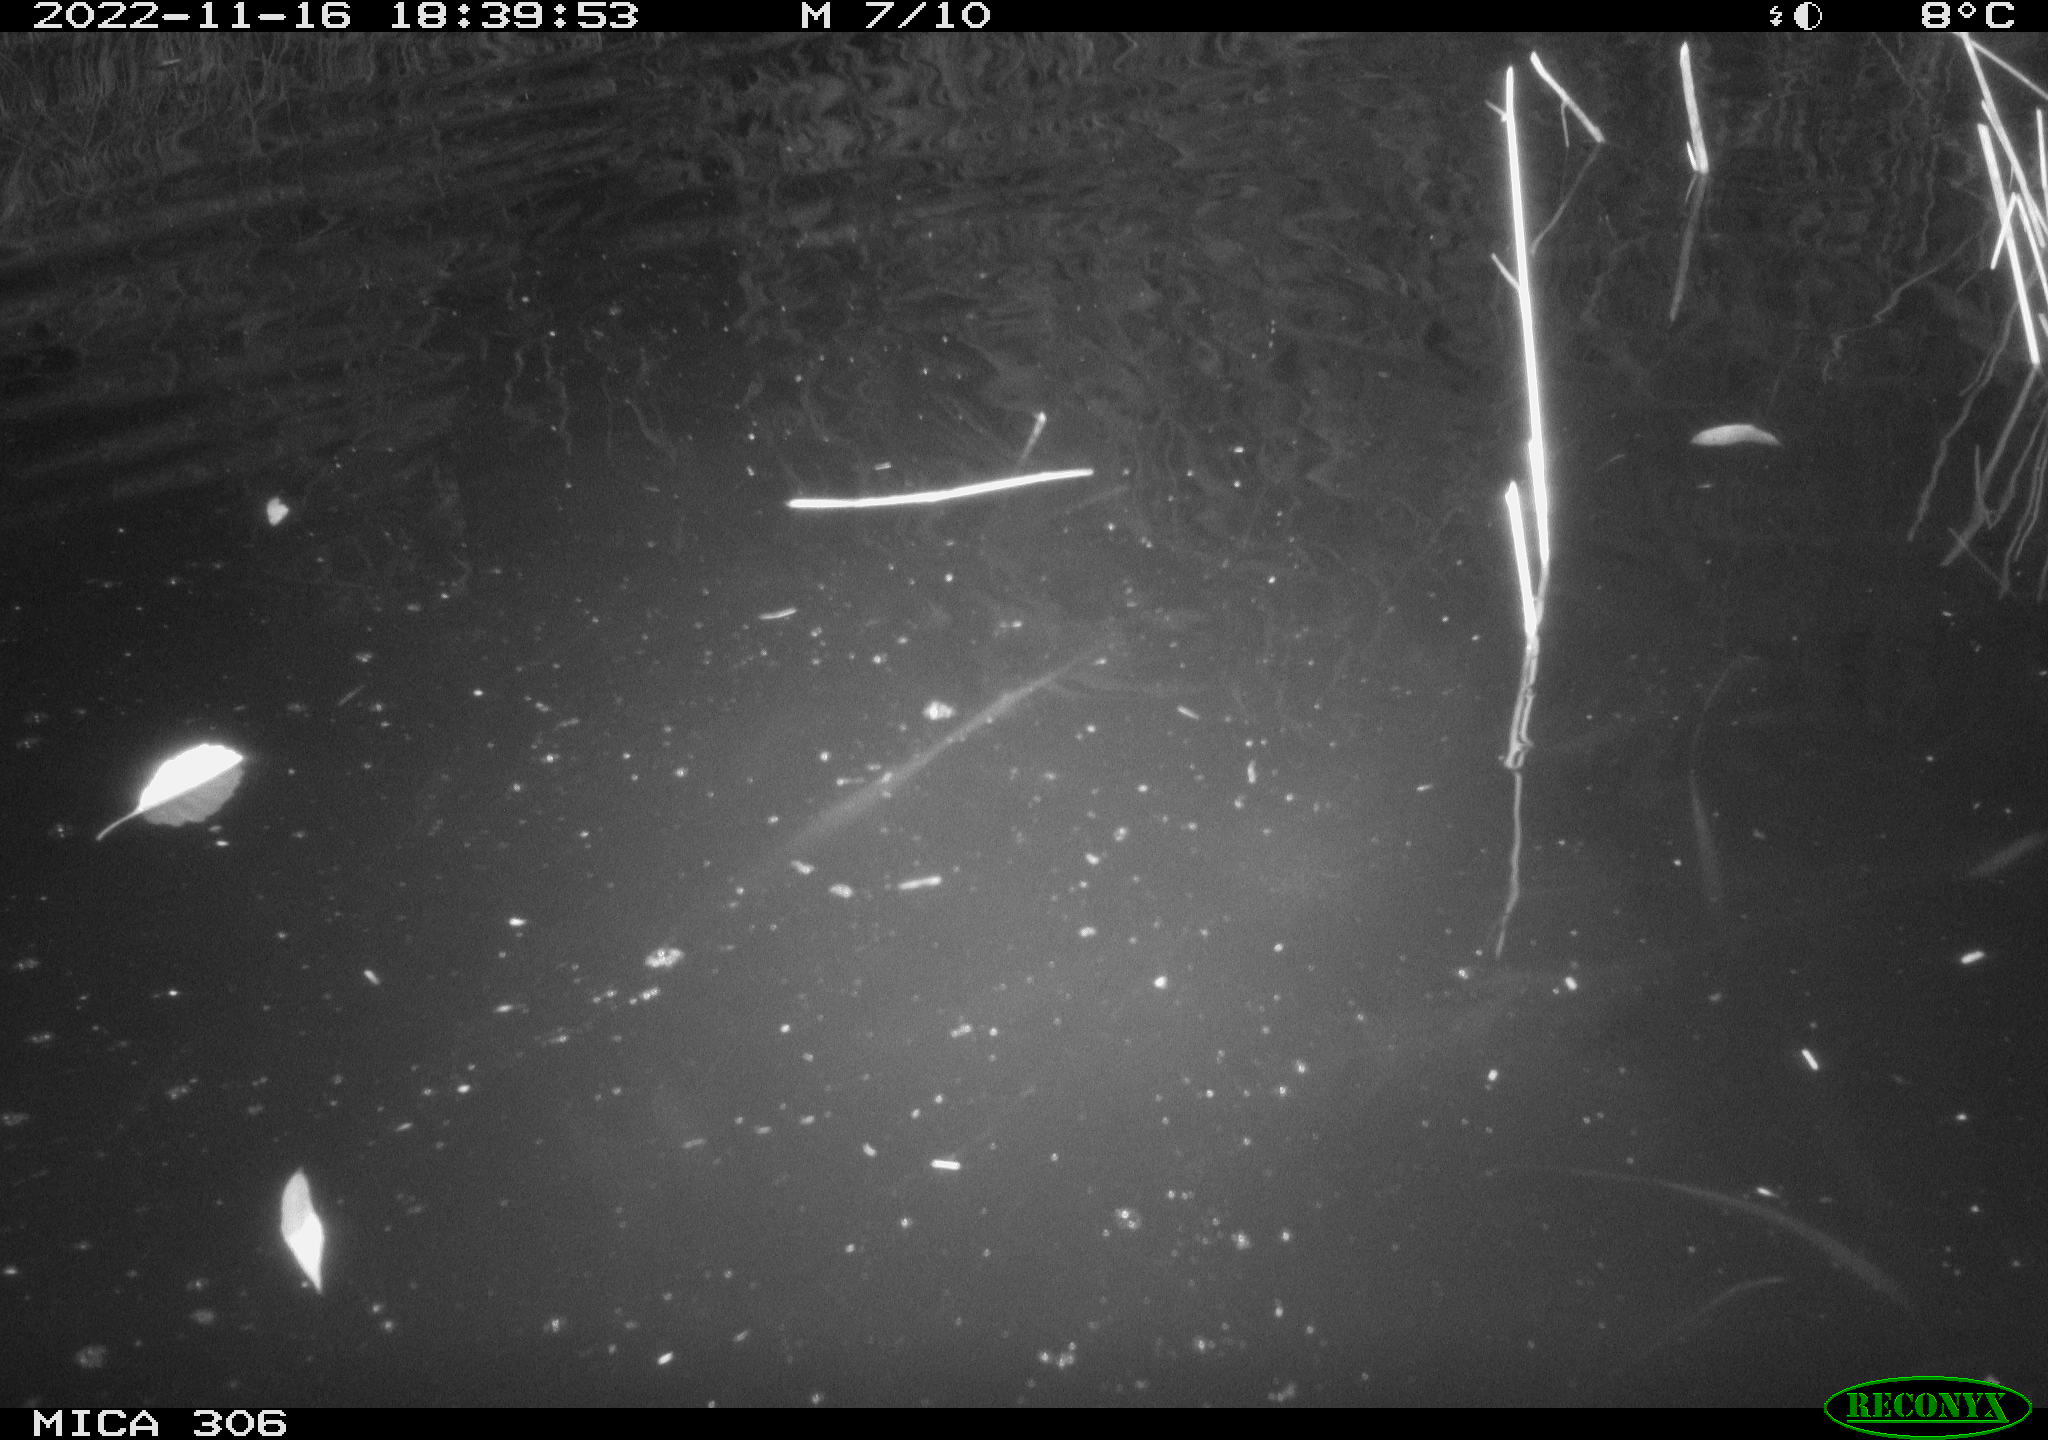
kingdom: Animalia
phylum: Chordata
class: Mammalia
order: Rodentia
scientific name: Rodentia
